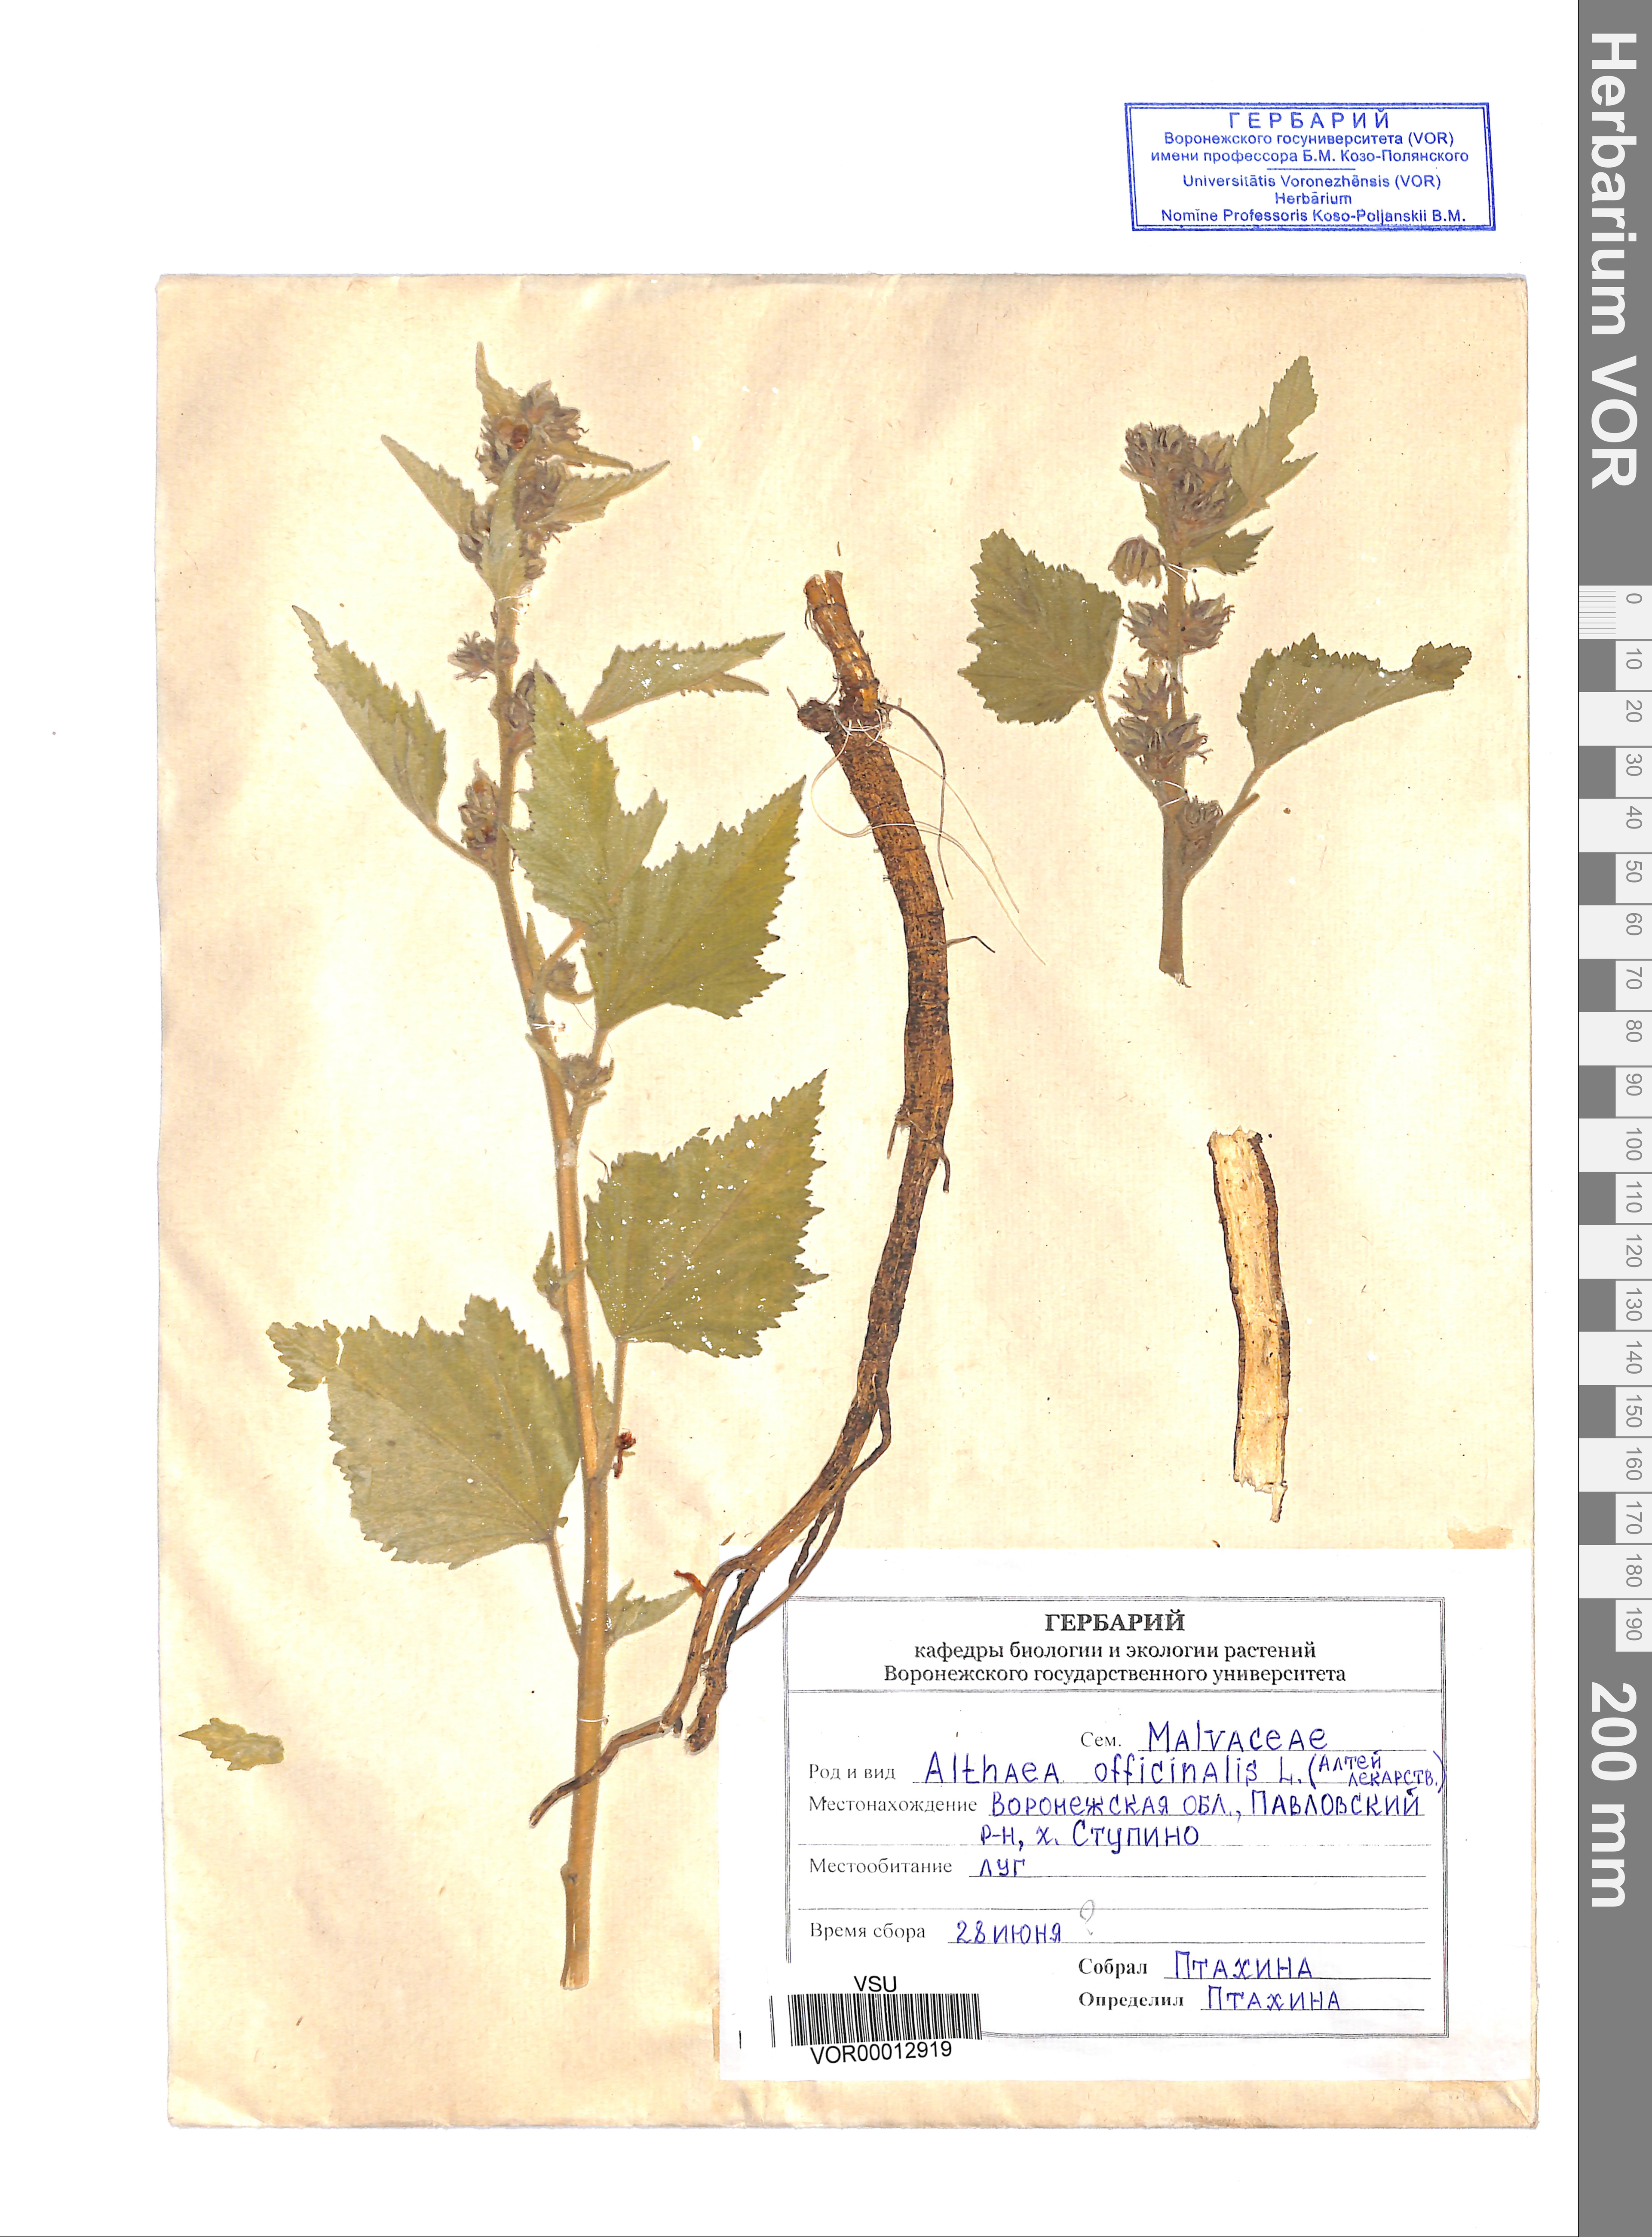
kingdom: Plantae
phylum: Tracheophyta
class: Magnoliopsida
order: Malvales
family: Malvaceae
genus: Althaea
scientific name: Althaea officinalis
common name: Marsh-mallow
